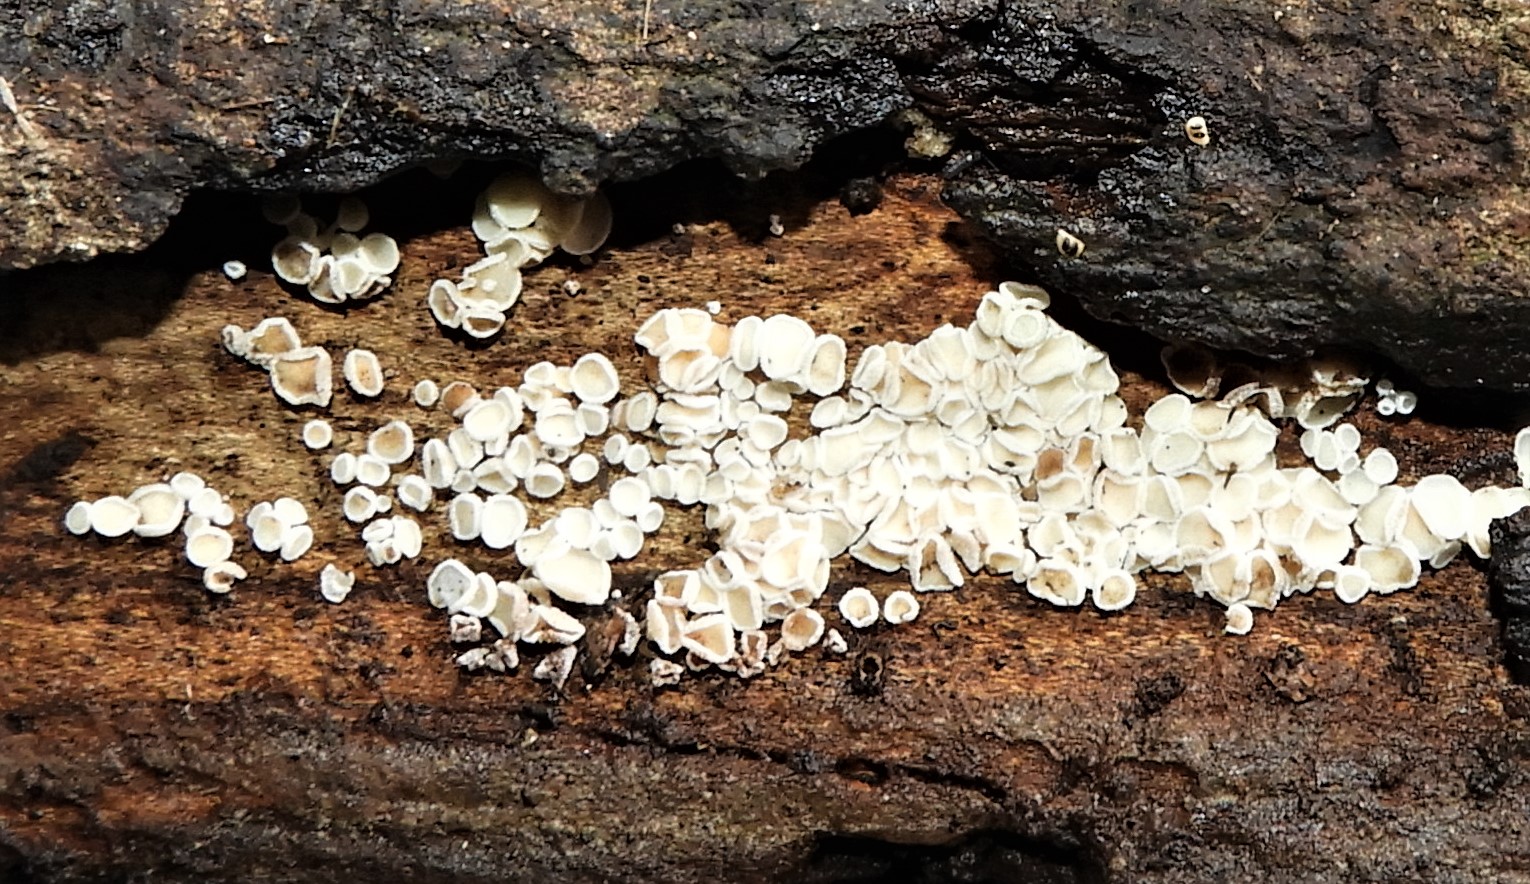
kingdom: Fungi
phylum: Ascomycota
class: Leotiomycetes
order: Helotiales
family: Lachnaceae
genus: Lachnum
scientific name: Lachnum
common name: frynseskive
